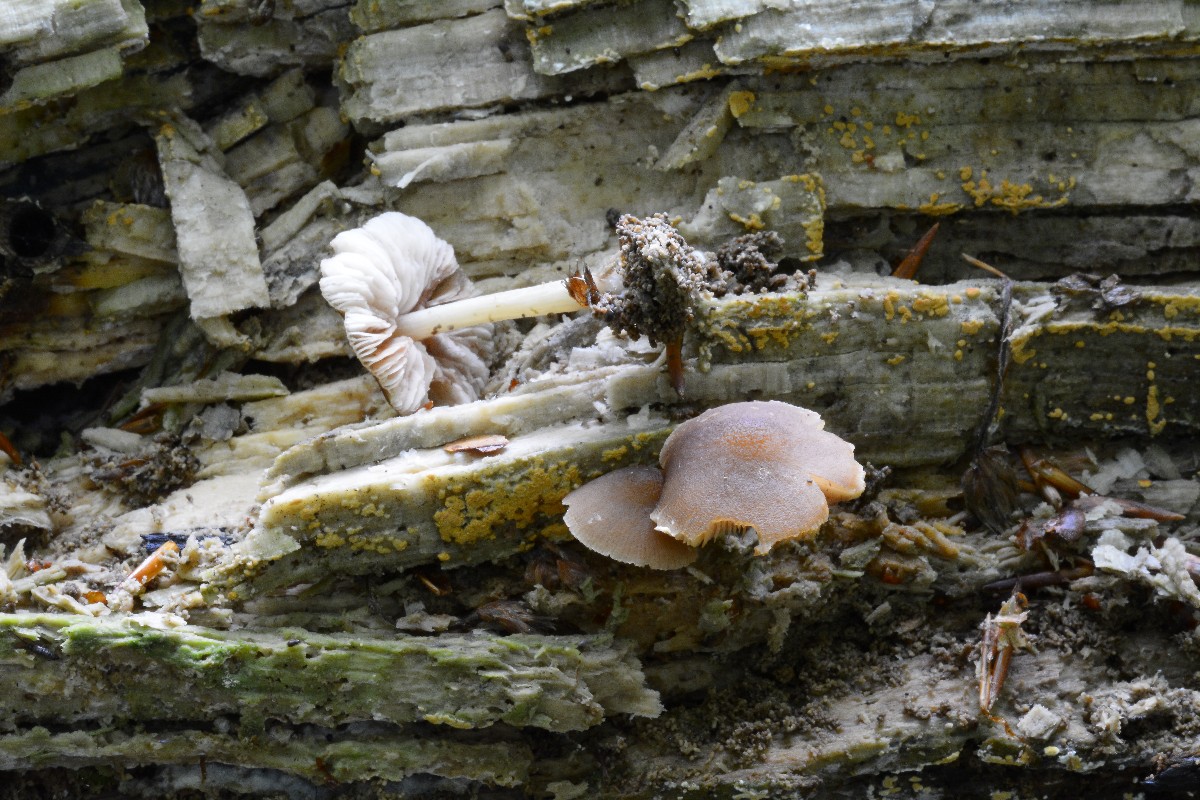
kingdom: Fungi
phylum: Basidiomycota
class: Agaricomycetes
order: Agaricales
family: Pluteaceae
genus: Pluteus
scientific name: Pluteus phlebophorus
